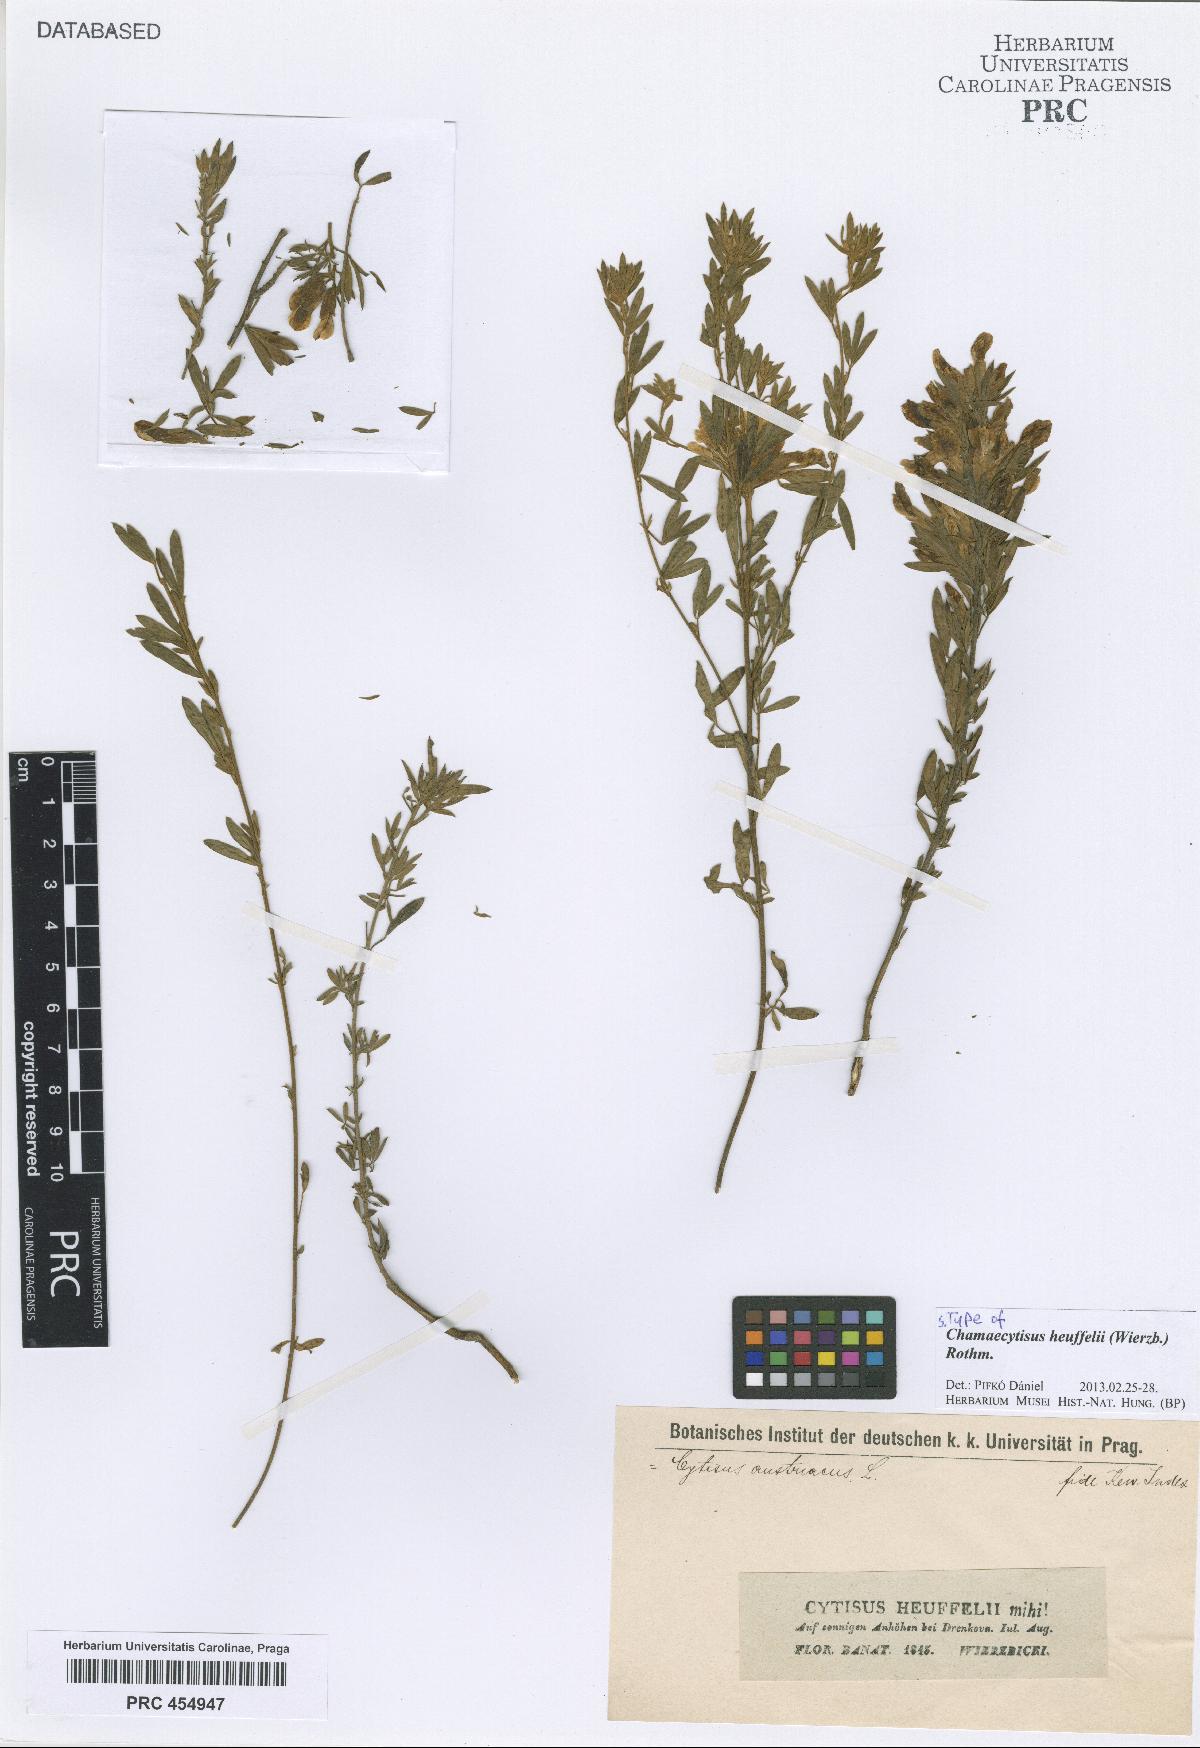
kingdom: Plantae
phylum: Tracheophyta
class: Magnoliopsida
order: Fabales
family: Fabaceae
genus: Cytisophyllum
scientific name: Cytisophyllum Cytisus heuffelii
